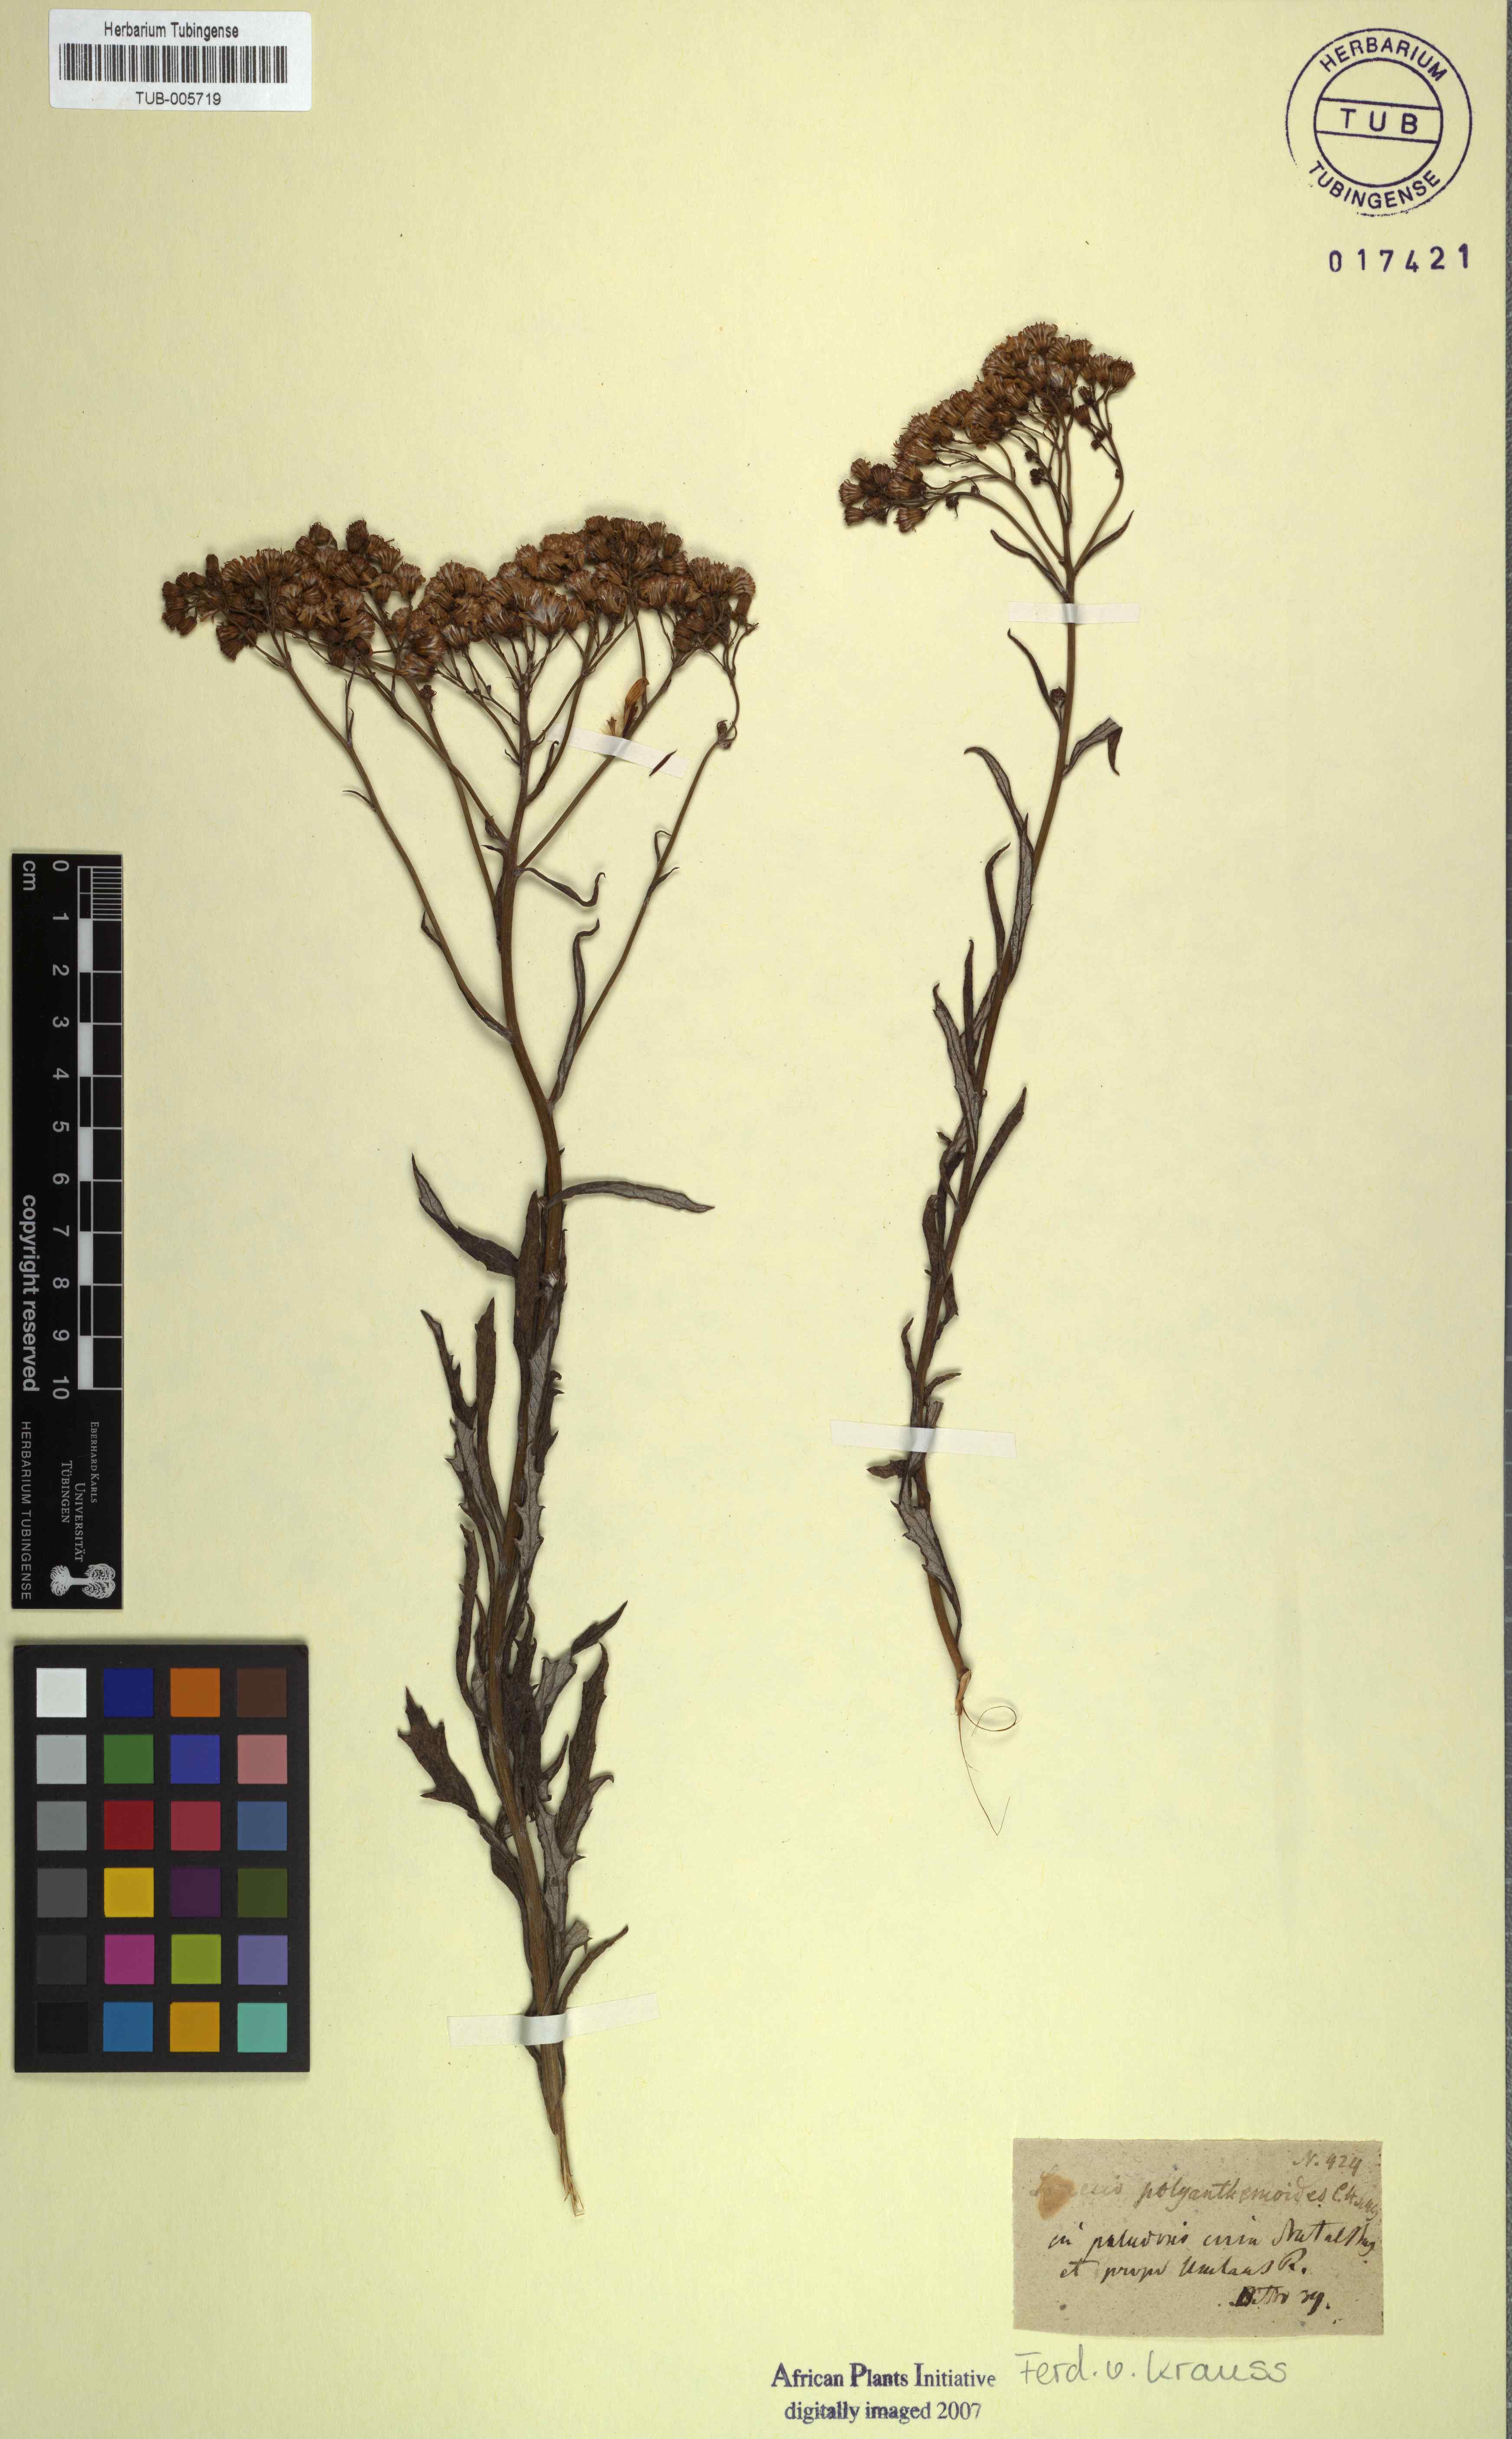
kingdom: Plantae
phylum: Tracheophyta
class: Magnoliopsida
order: Asterales
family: Asteraceae
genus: Senecio
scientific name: Senecio pterophorus
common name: Shoddy ragwort
